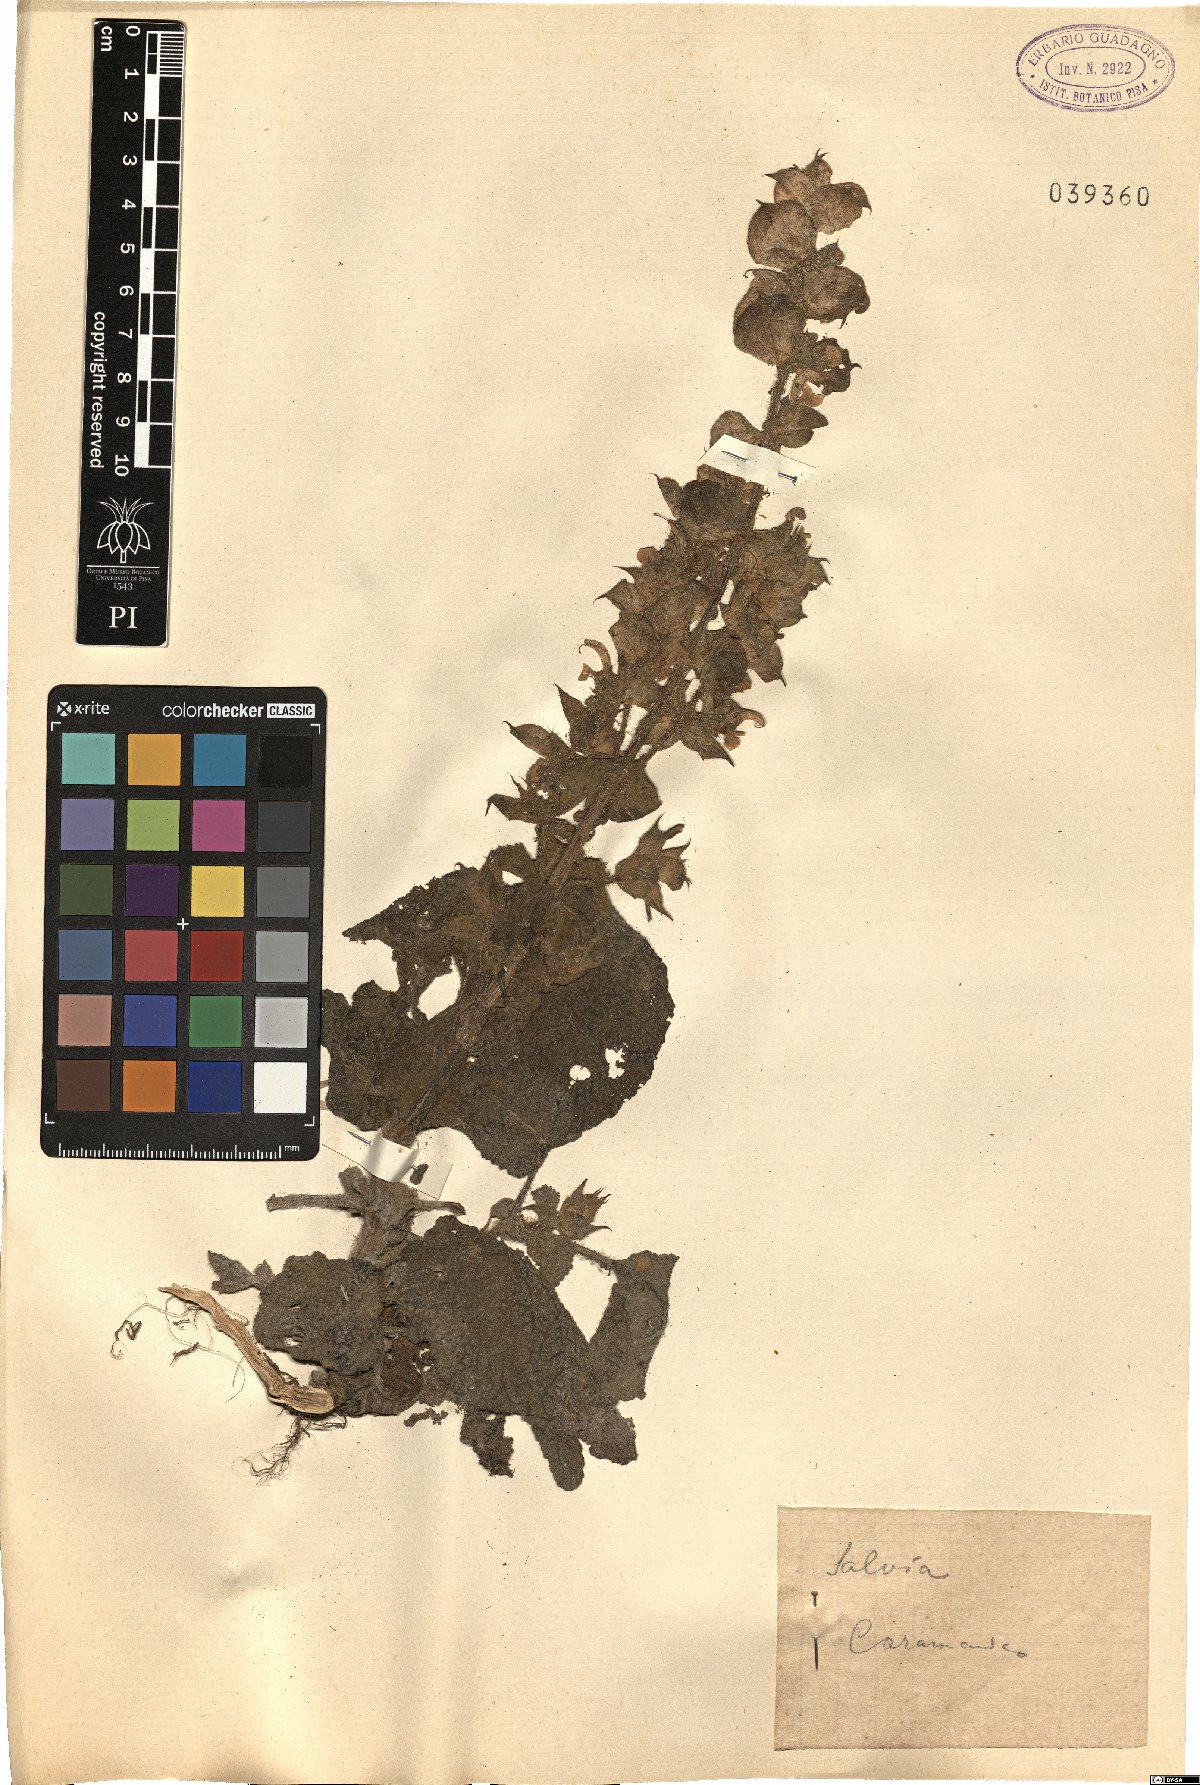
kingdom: Plantae
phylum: Tracheophyta
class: Magnoliopsida
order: Lamiales
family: Lamiaceae
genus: Salvia
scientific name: Salvia
